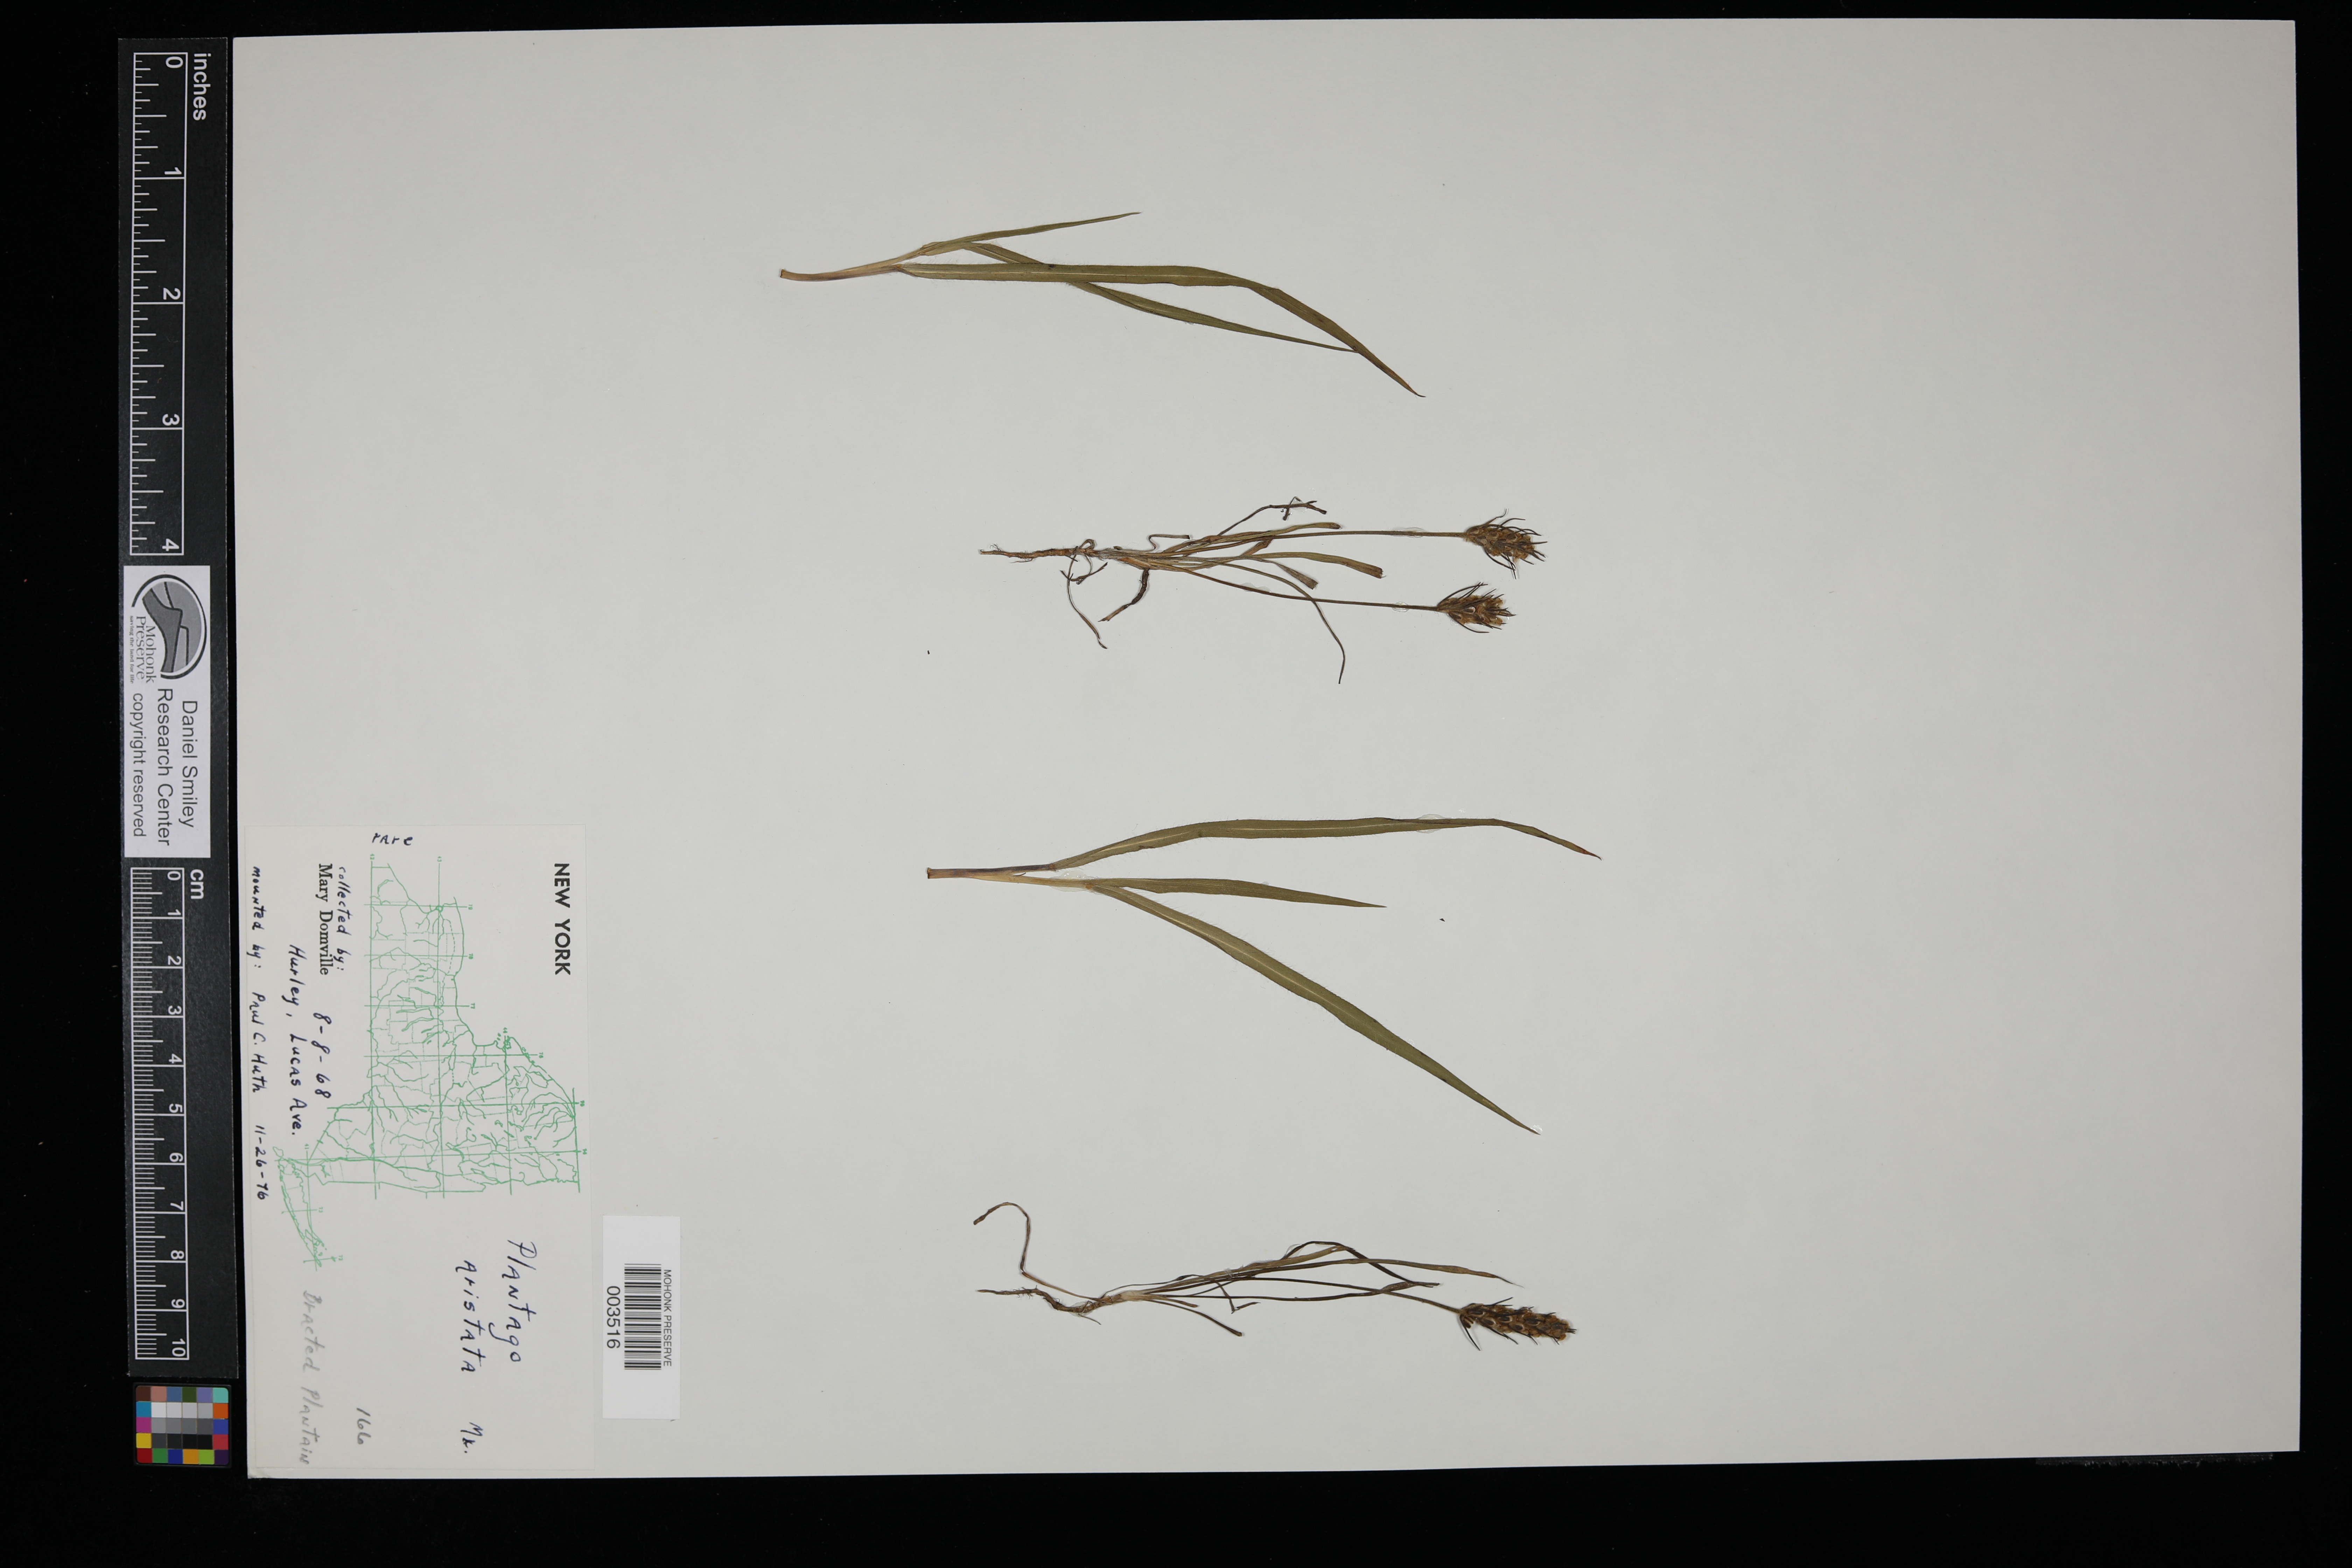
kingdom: Plantae
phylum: Tracheophyta
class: Magnoliopsida
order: Lamiales
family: Plantaginaceae
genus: Plantago
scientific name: Plantago aristata
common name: Bracted plantain
